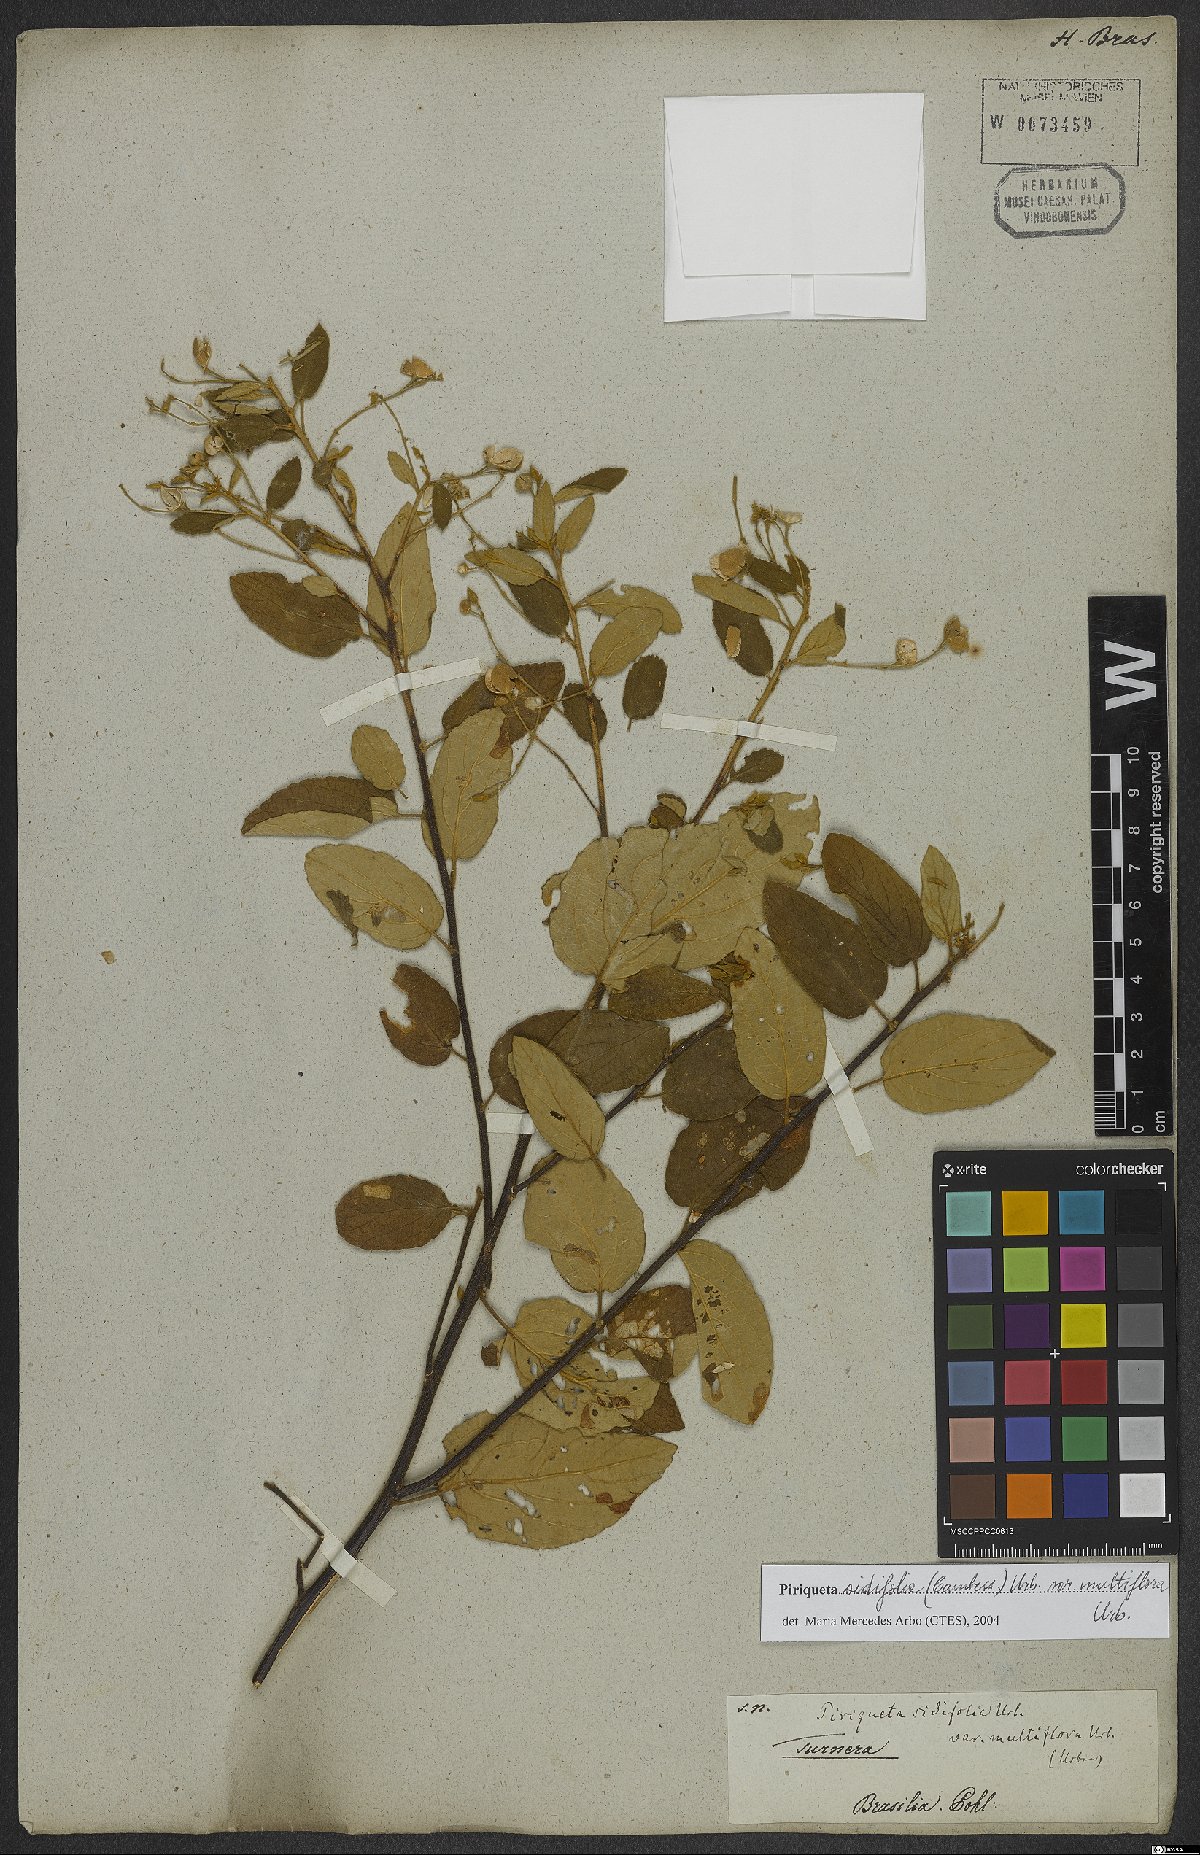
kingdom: Plantae
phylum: Tracheophyta
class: Magnoliopsida
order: Malpighiales
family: Turneraceae
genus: Piriqueta
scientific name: Piriqueta sidifolia
